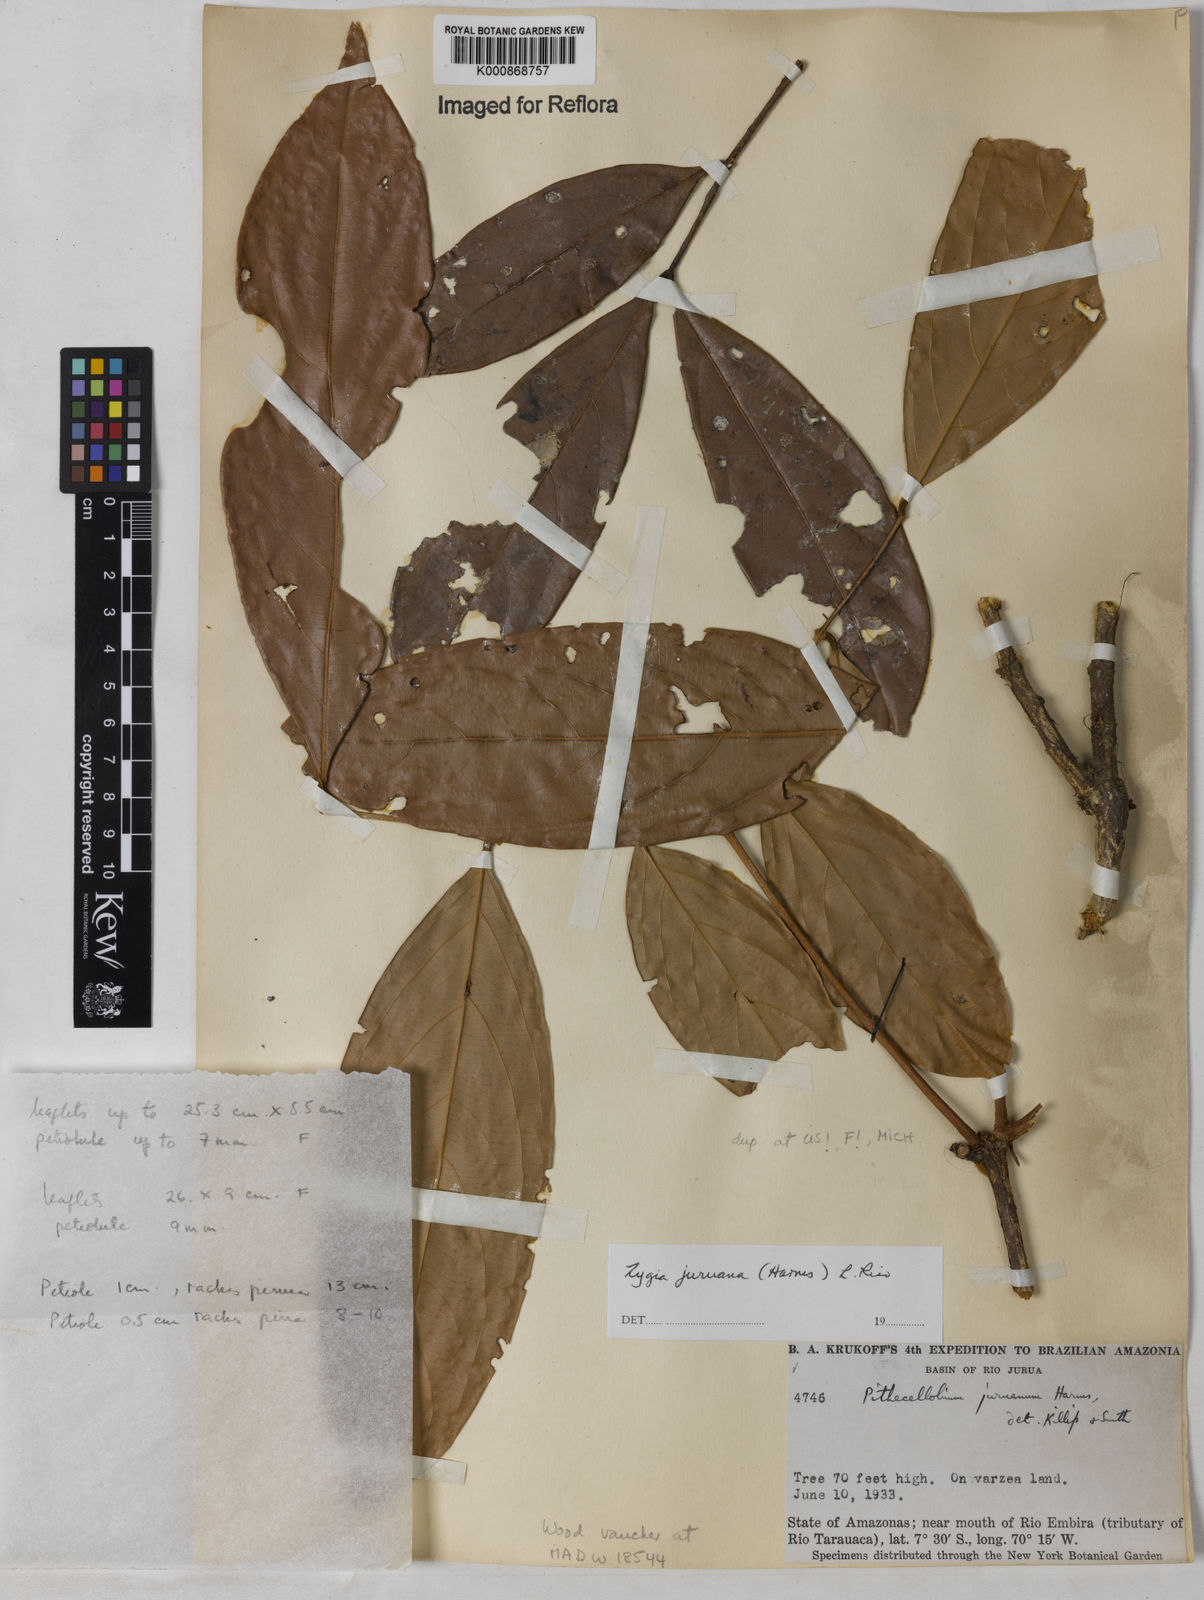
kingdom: Plantae
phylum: Tracheophyta
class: Magnoliopsida
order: Fabales
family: Fabaceae
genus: Zygia
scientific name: Zygia juruana
